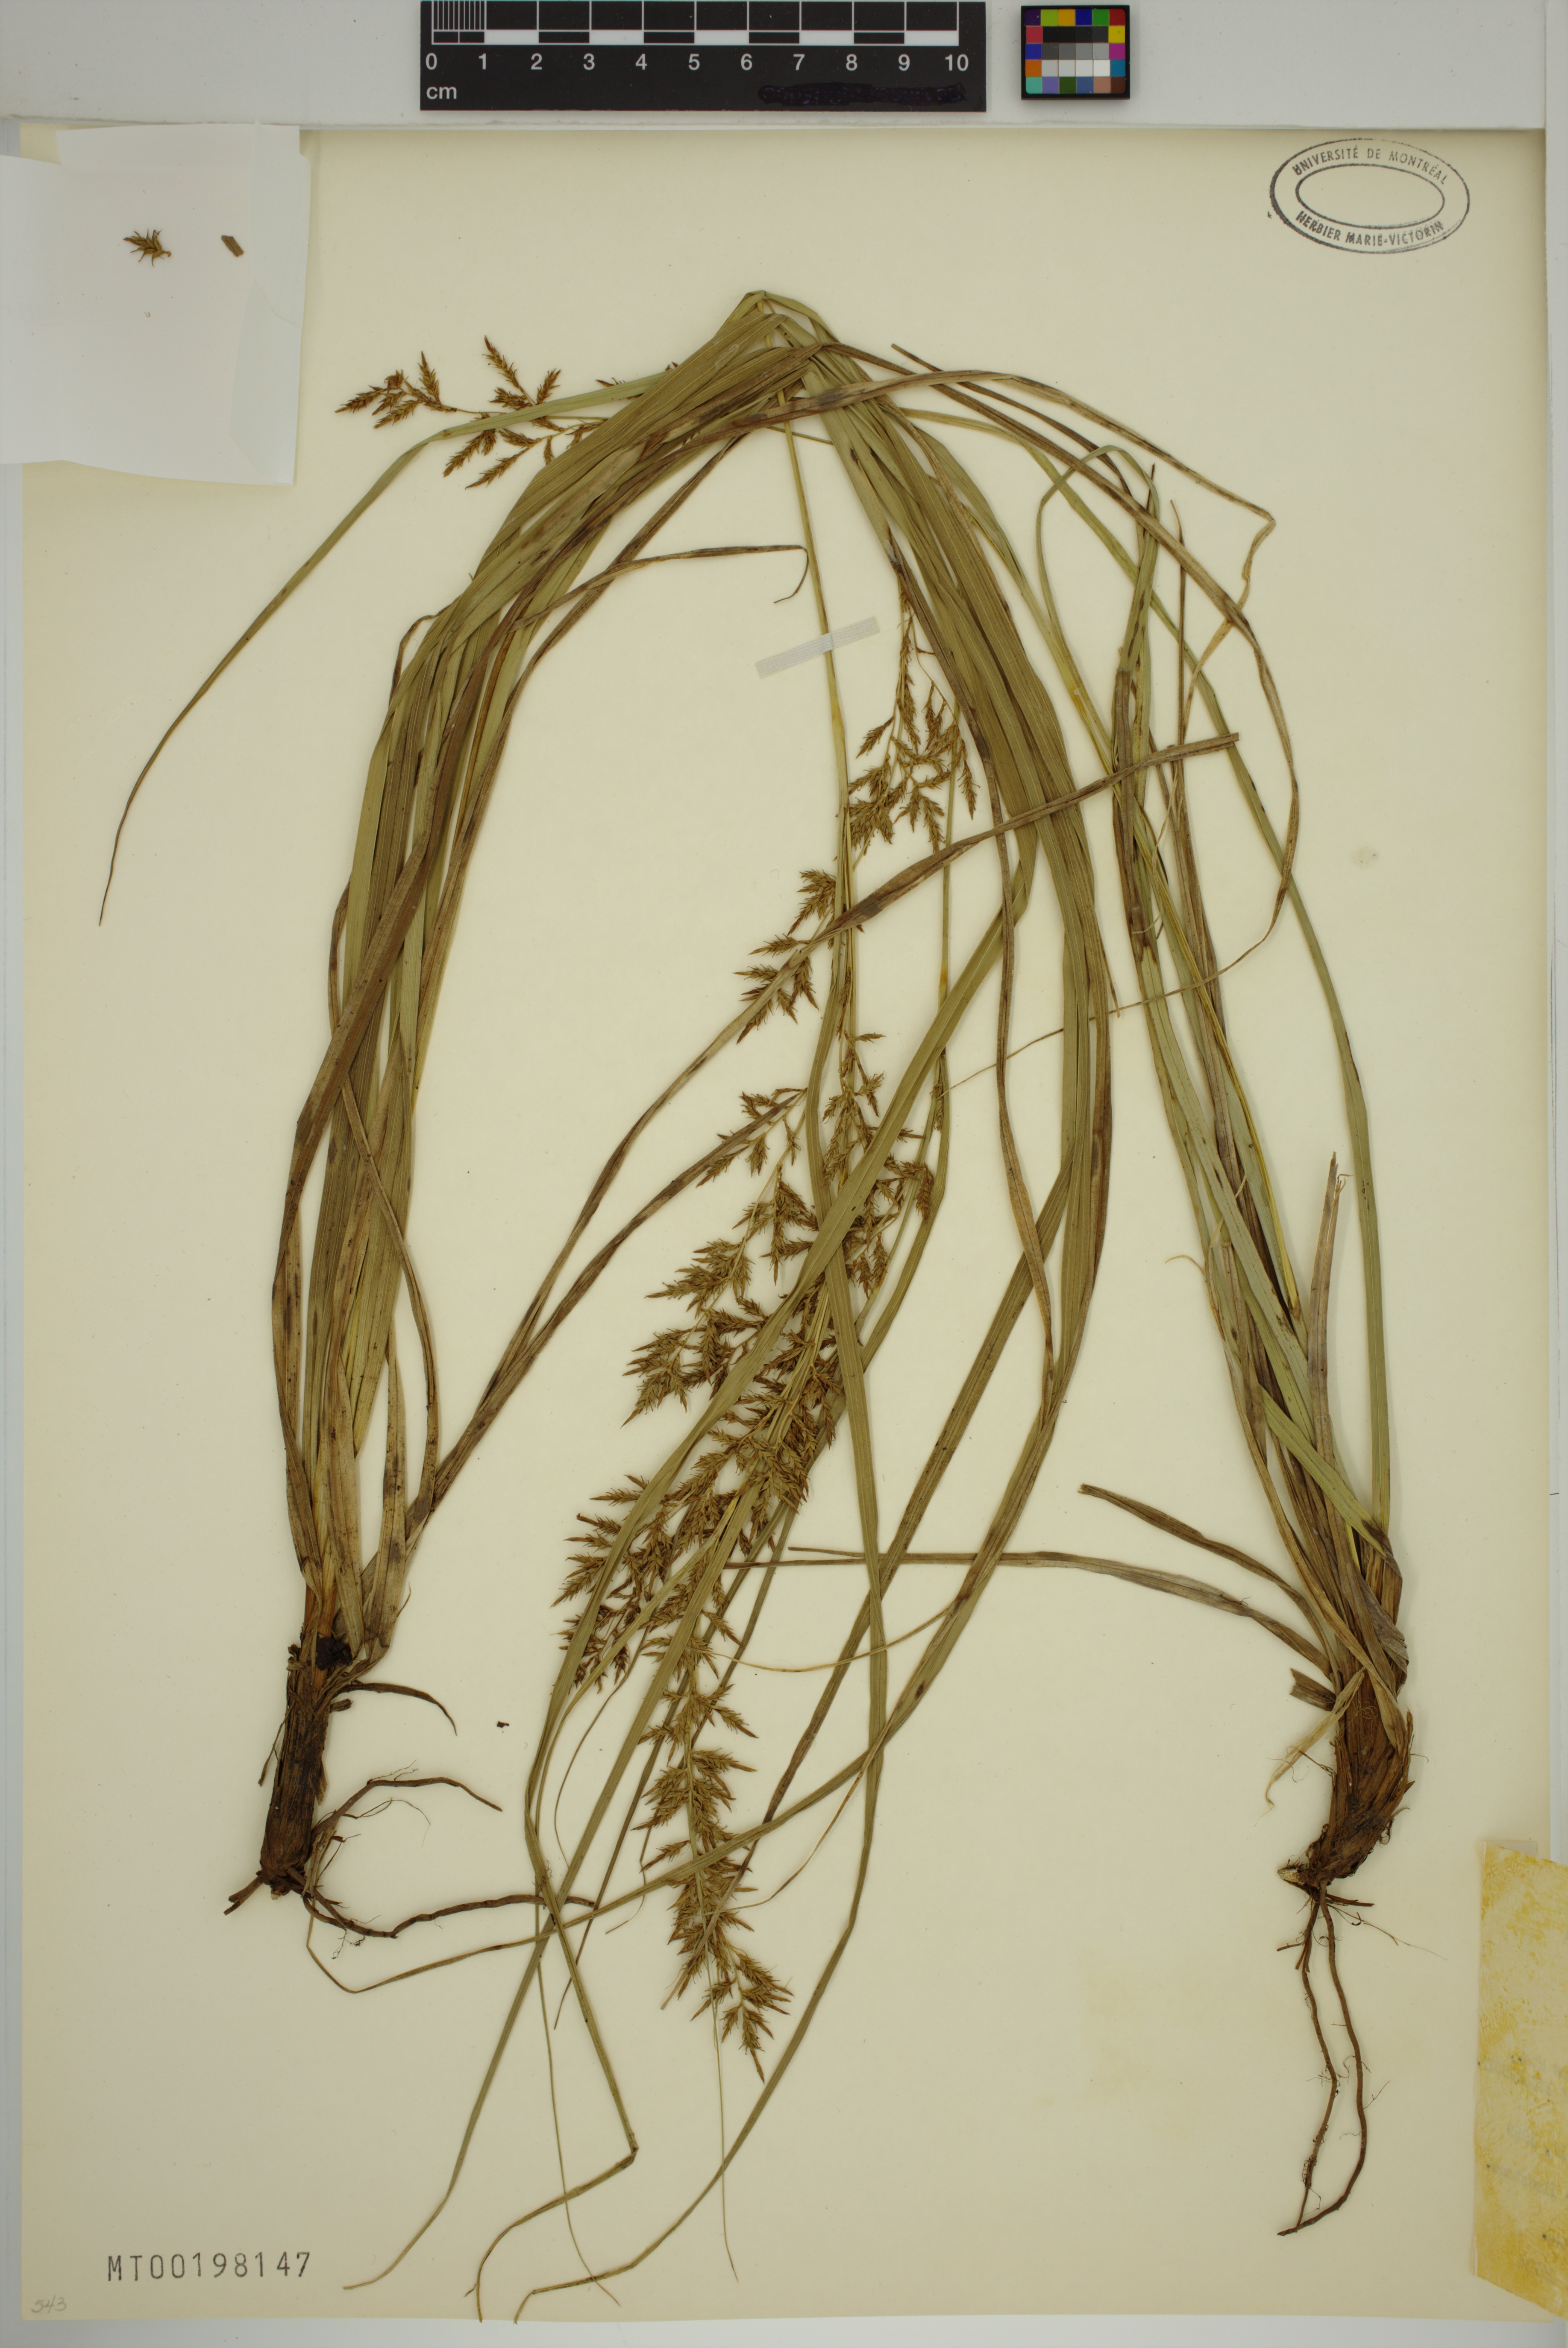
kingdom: Plantae
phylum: Tracheophyta
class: Liliopsida
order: Poales
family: Cyperaceae
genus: Carex
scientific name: Carex polystachya
